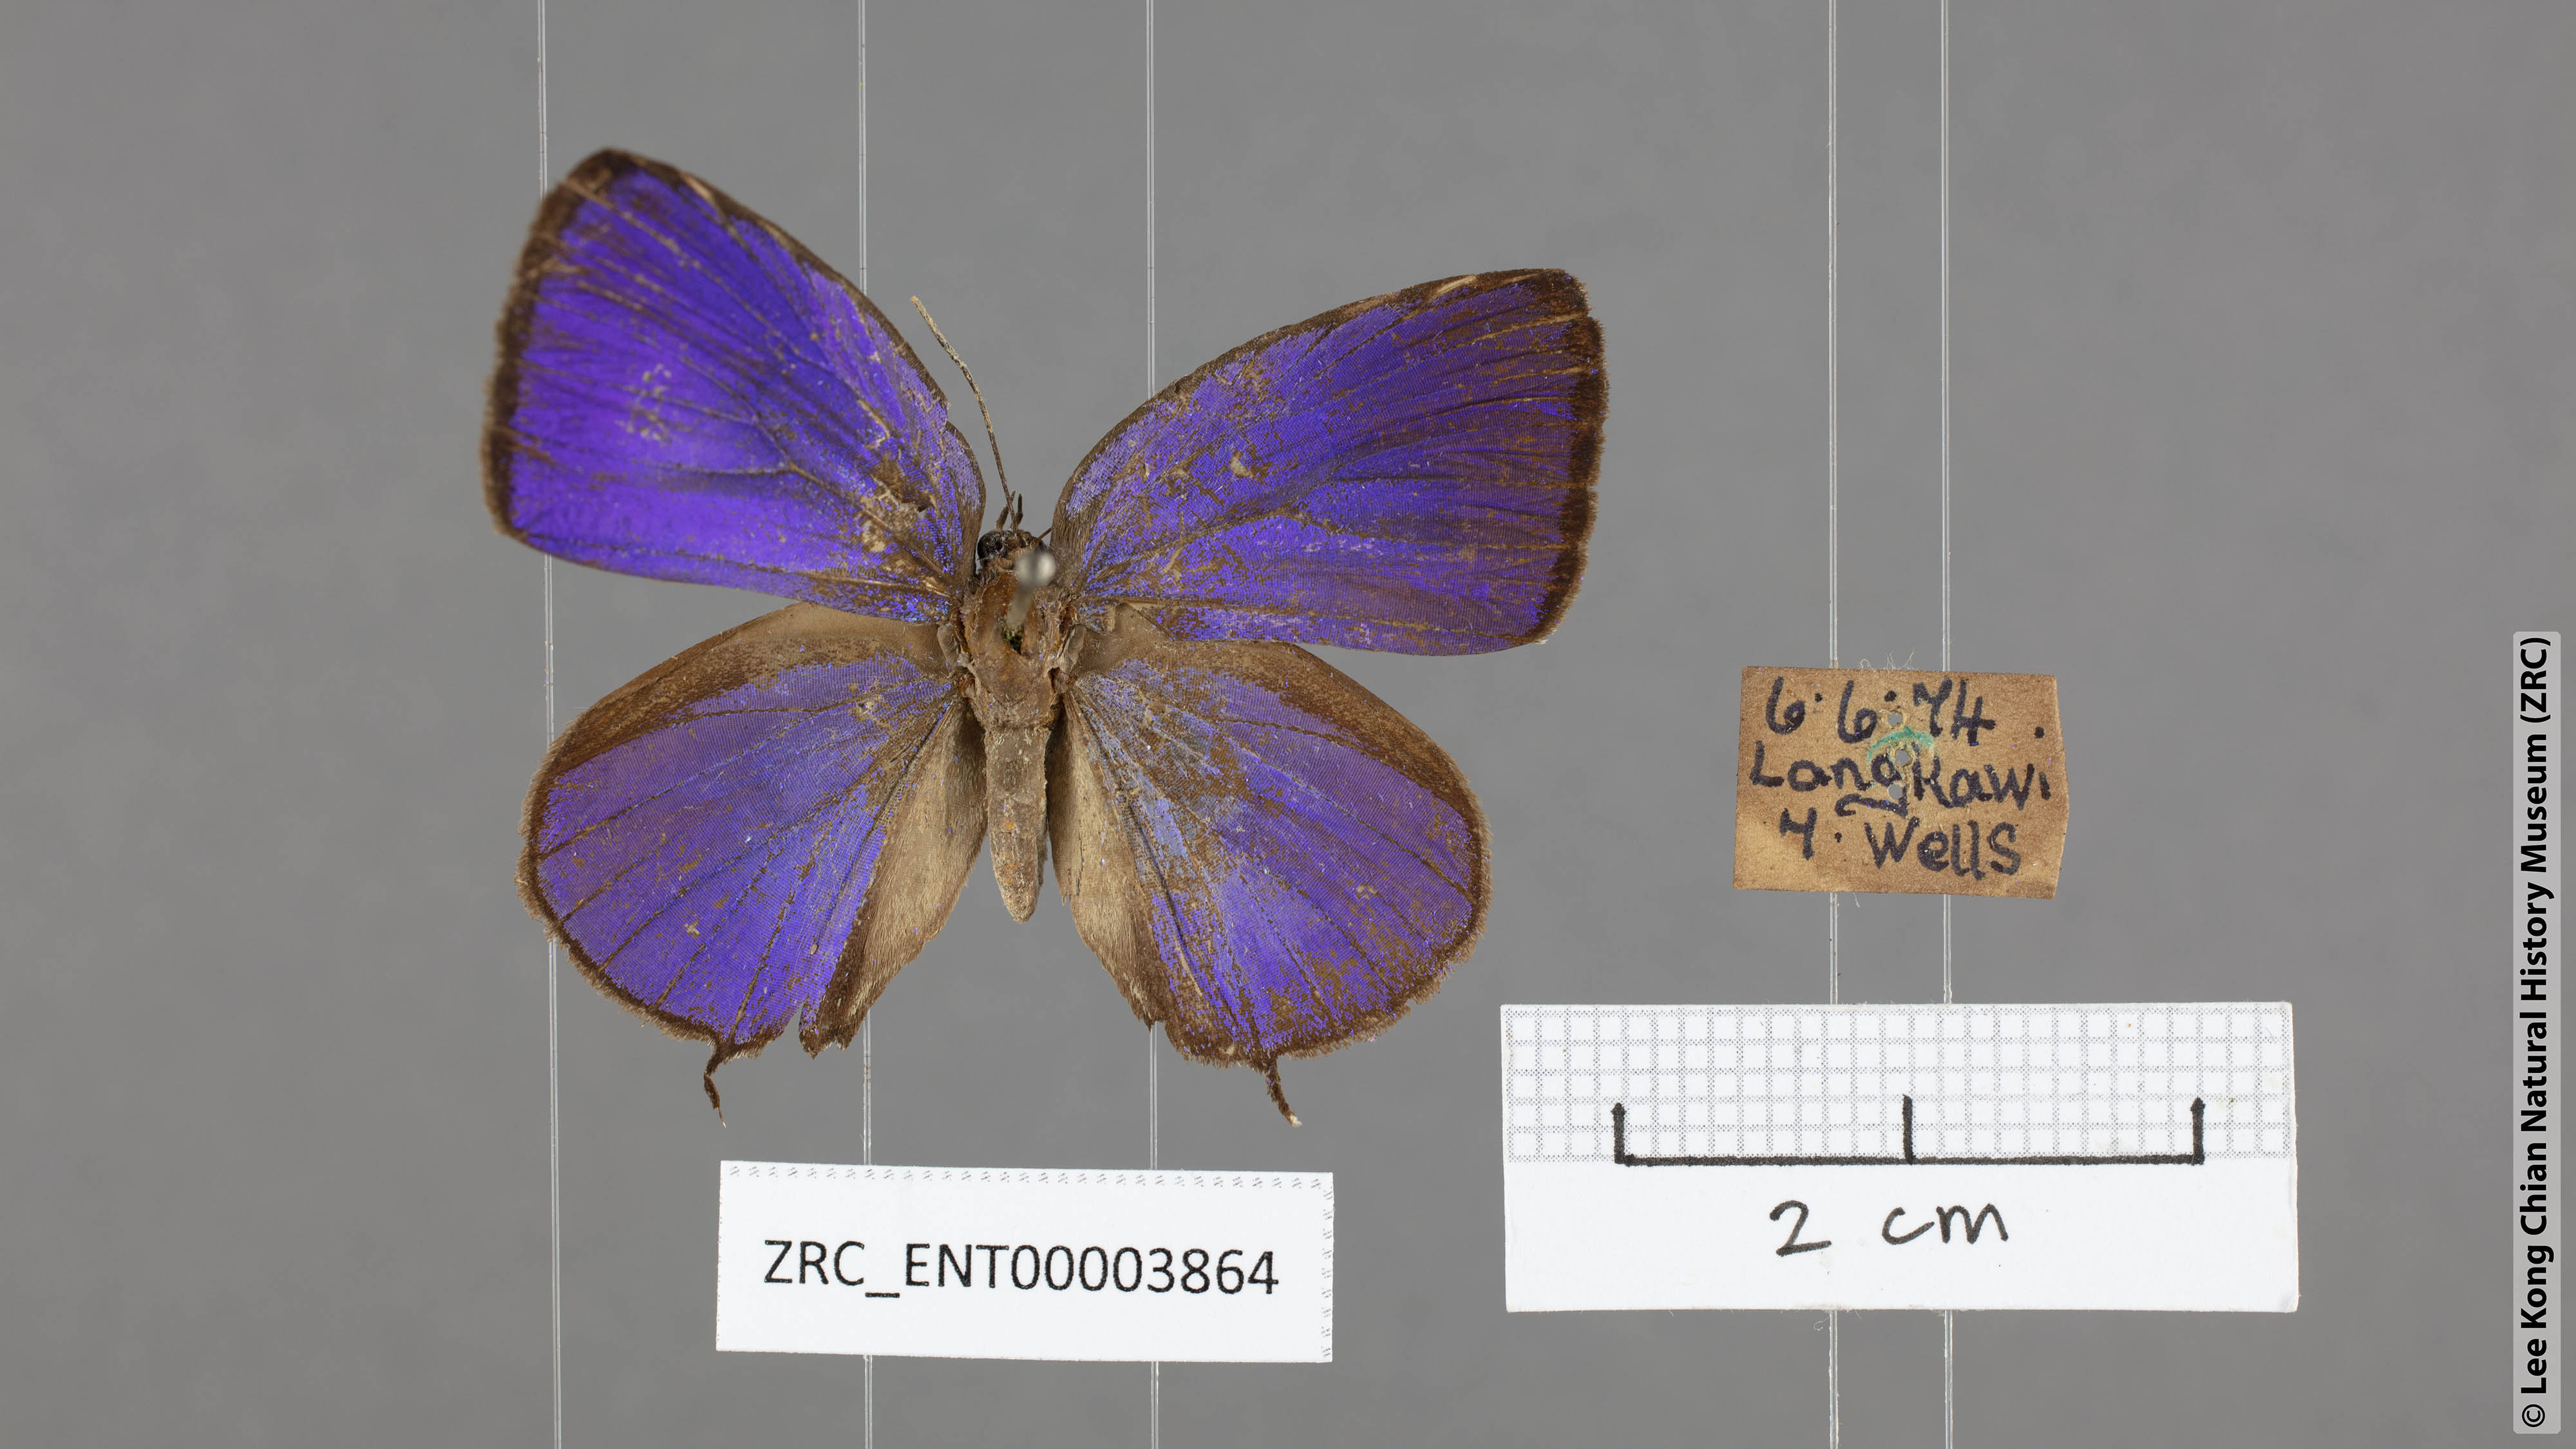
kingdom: Animalia
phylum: Arthropoda
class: Insecta
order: Lepidoptera
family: Lycaenidae
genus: Arhopala
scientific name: Arhopala atosia
